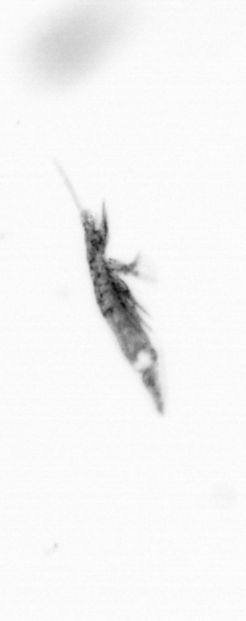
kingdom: Animalia
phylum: Arthropoda
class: Copepoda
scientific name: Copepoda
